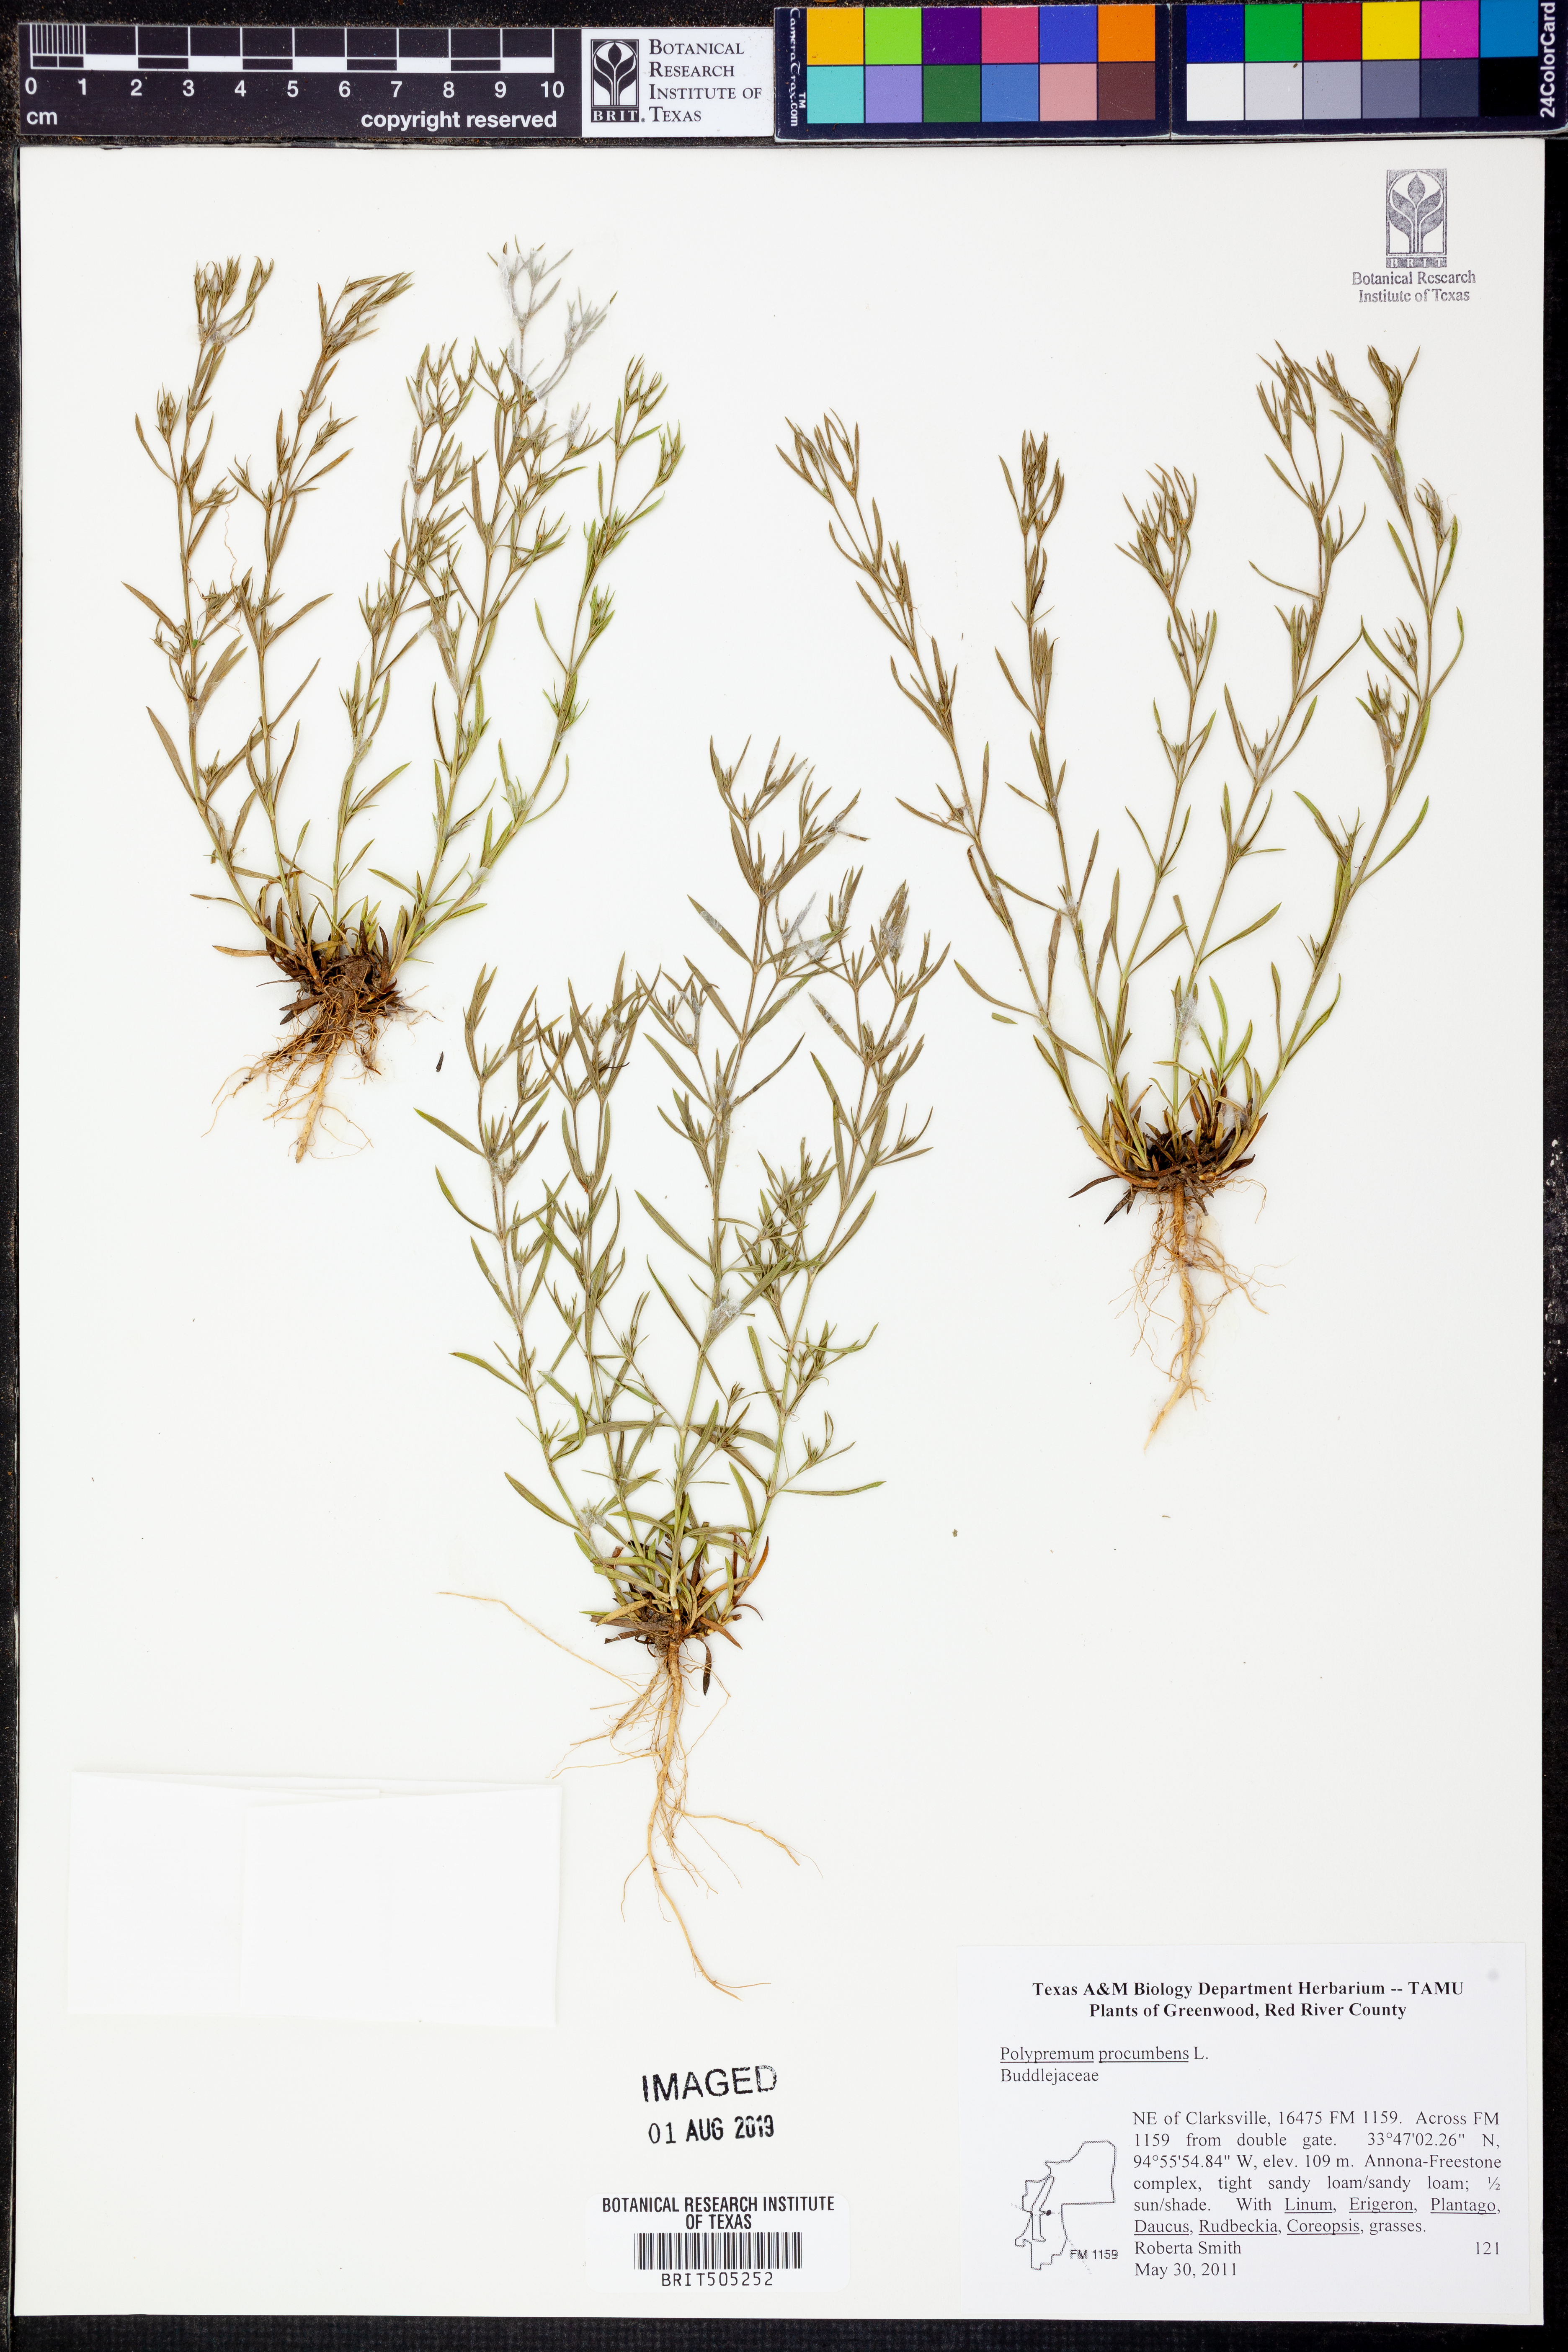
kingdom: Plantae
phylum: Tracheophyta
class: Magnoliopsida
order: Lamiales
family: Tetrachondraceae
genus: Polypremum
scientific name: Polypremum procumbens
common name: Juniper-leaf
